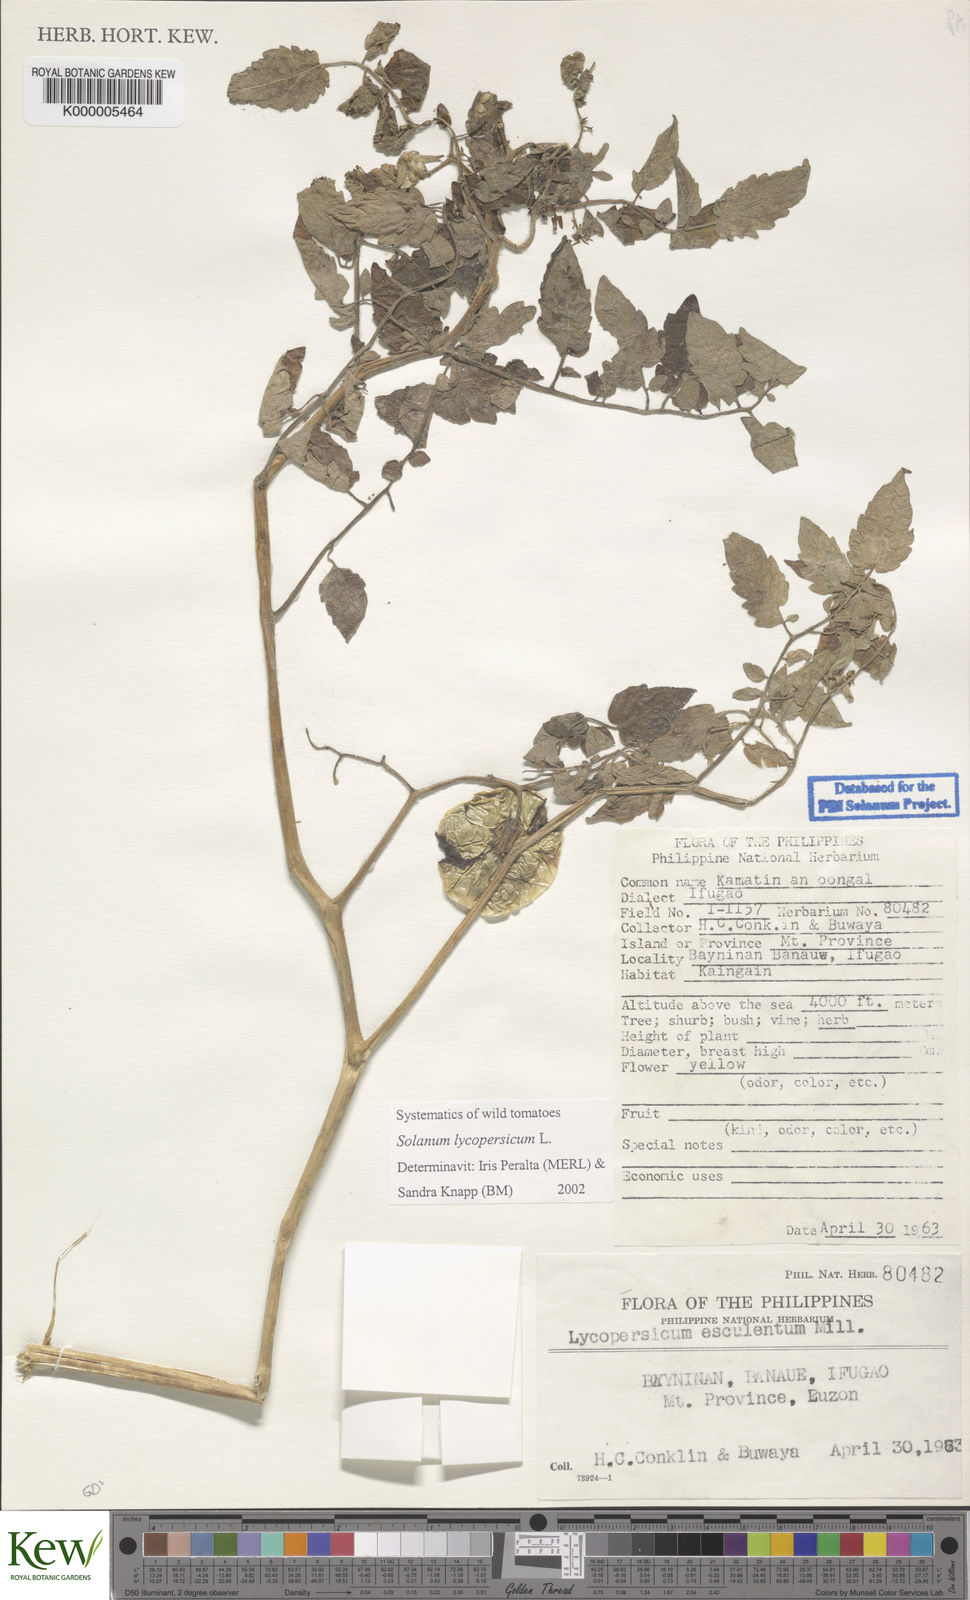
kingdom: Plantae
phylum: Tracheophyta
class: Magnoliopsida
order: Solanales
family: Solanaceae
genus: Solanum
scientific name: Solanum lycopersicum
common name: Garden tomato
